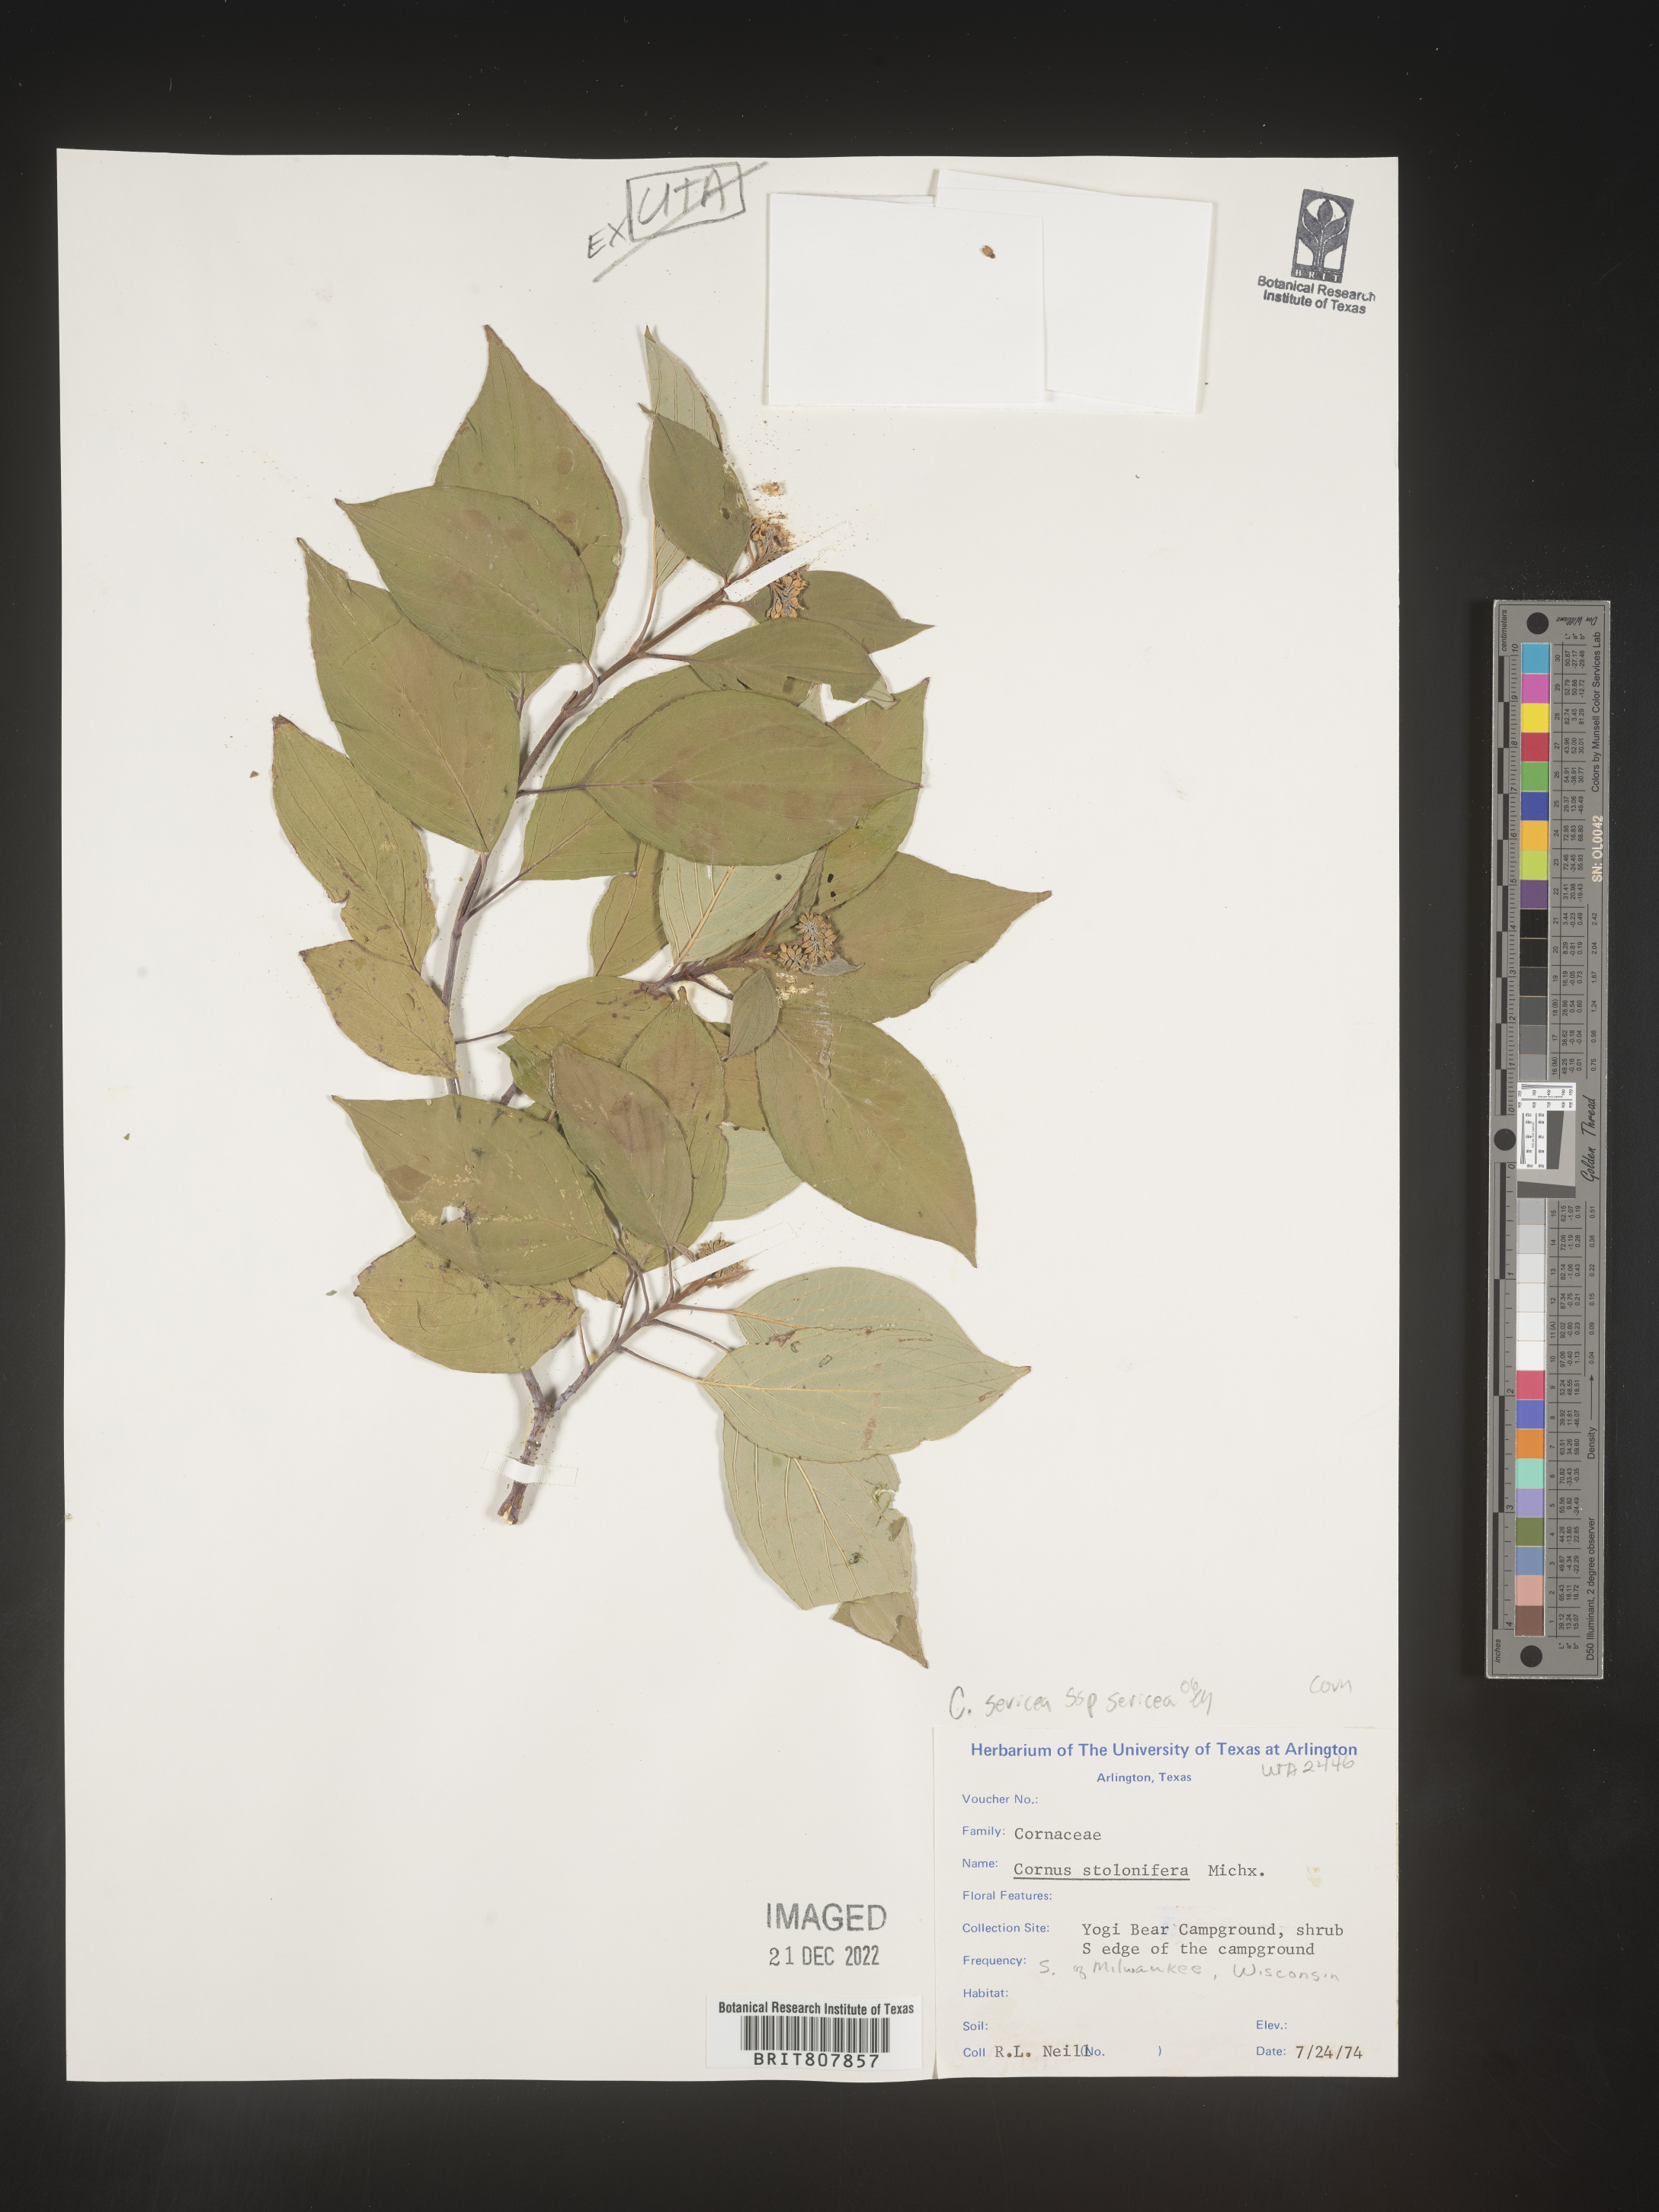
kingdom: Plantae
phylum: Tracheophyta
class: Magnoliopsida
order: Cornales
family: Cornaceae
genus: Cornus
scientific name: Cornus
